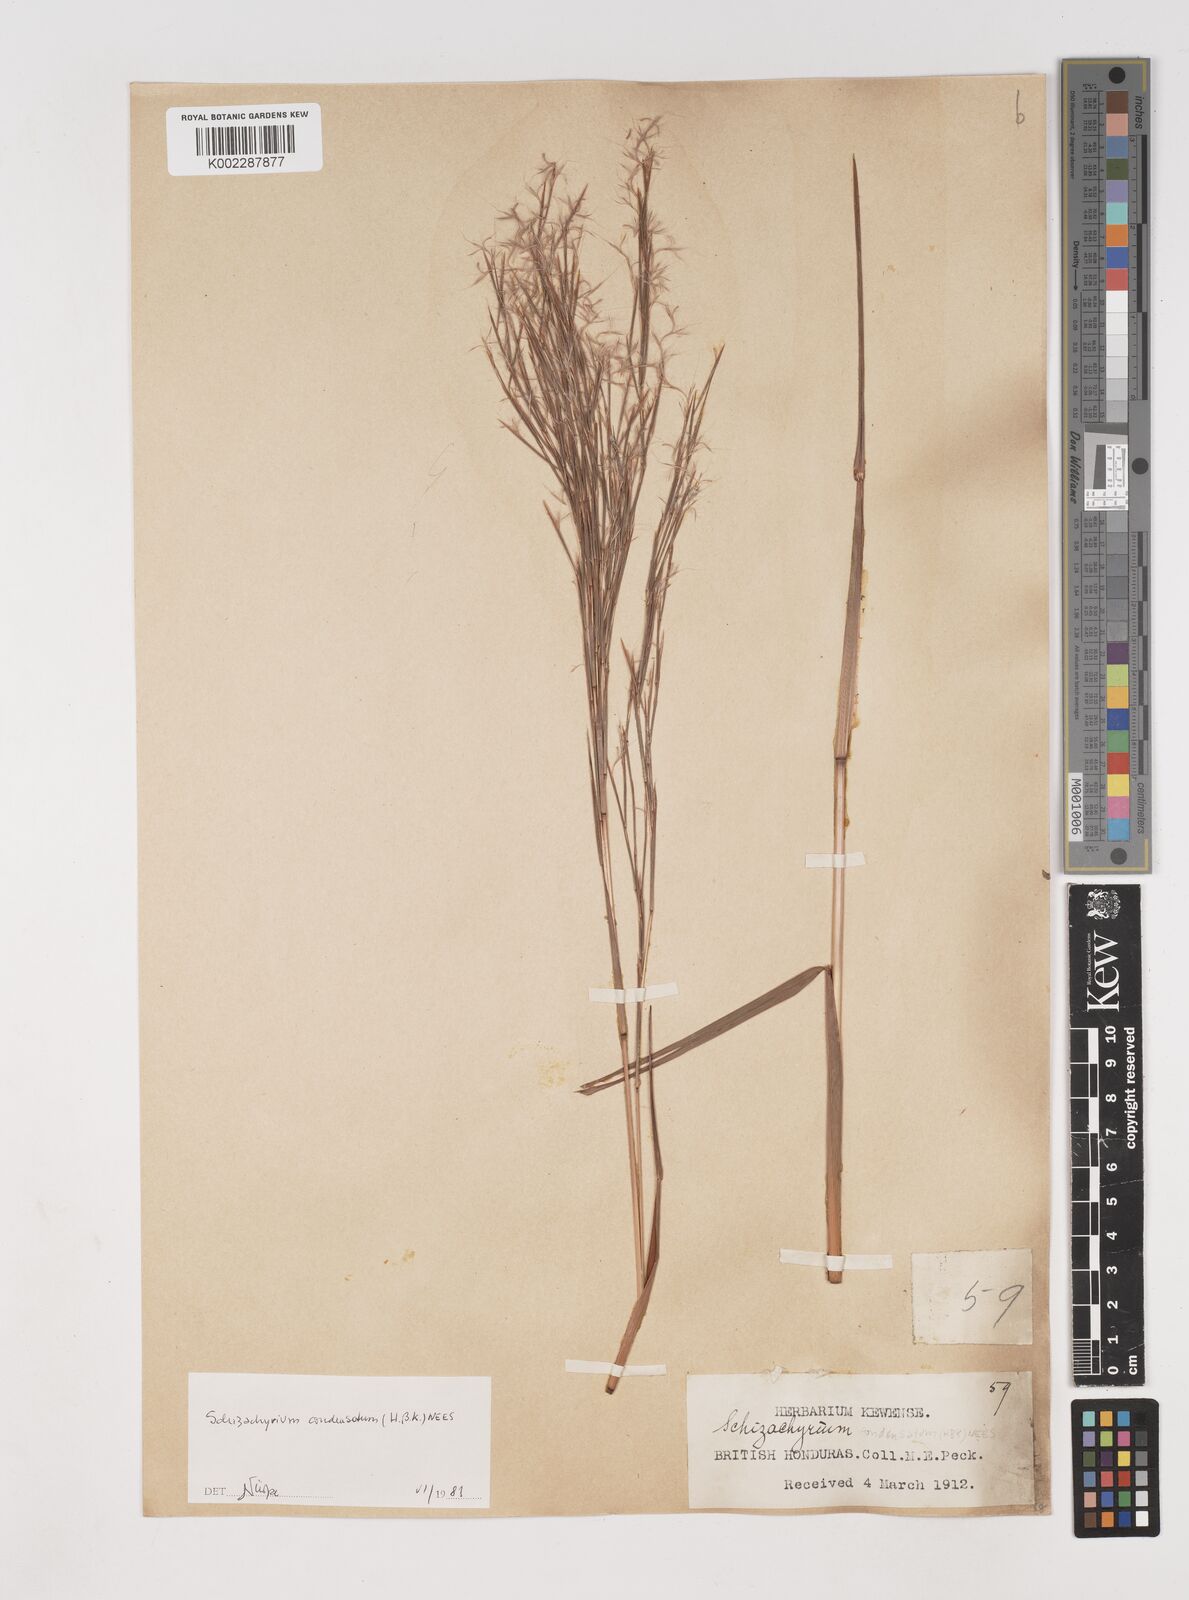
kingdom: Plantae
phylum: Tracheophyta
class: Liliopsida
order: Poales
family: Poaceae
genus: Schizachyrium
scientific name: Schizachyrium condensatum
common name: Bush beardgrass
